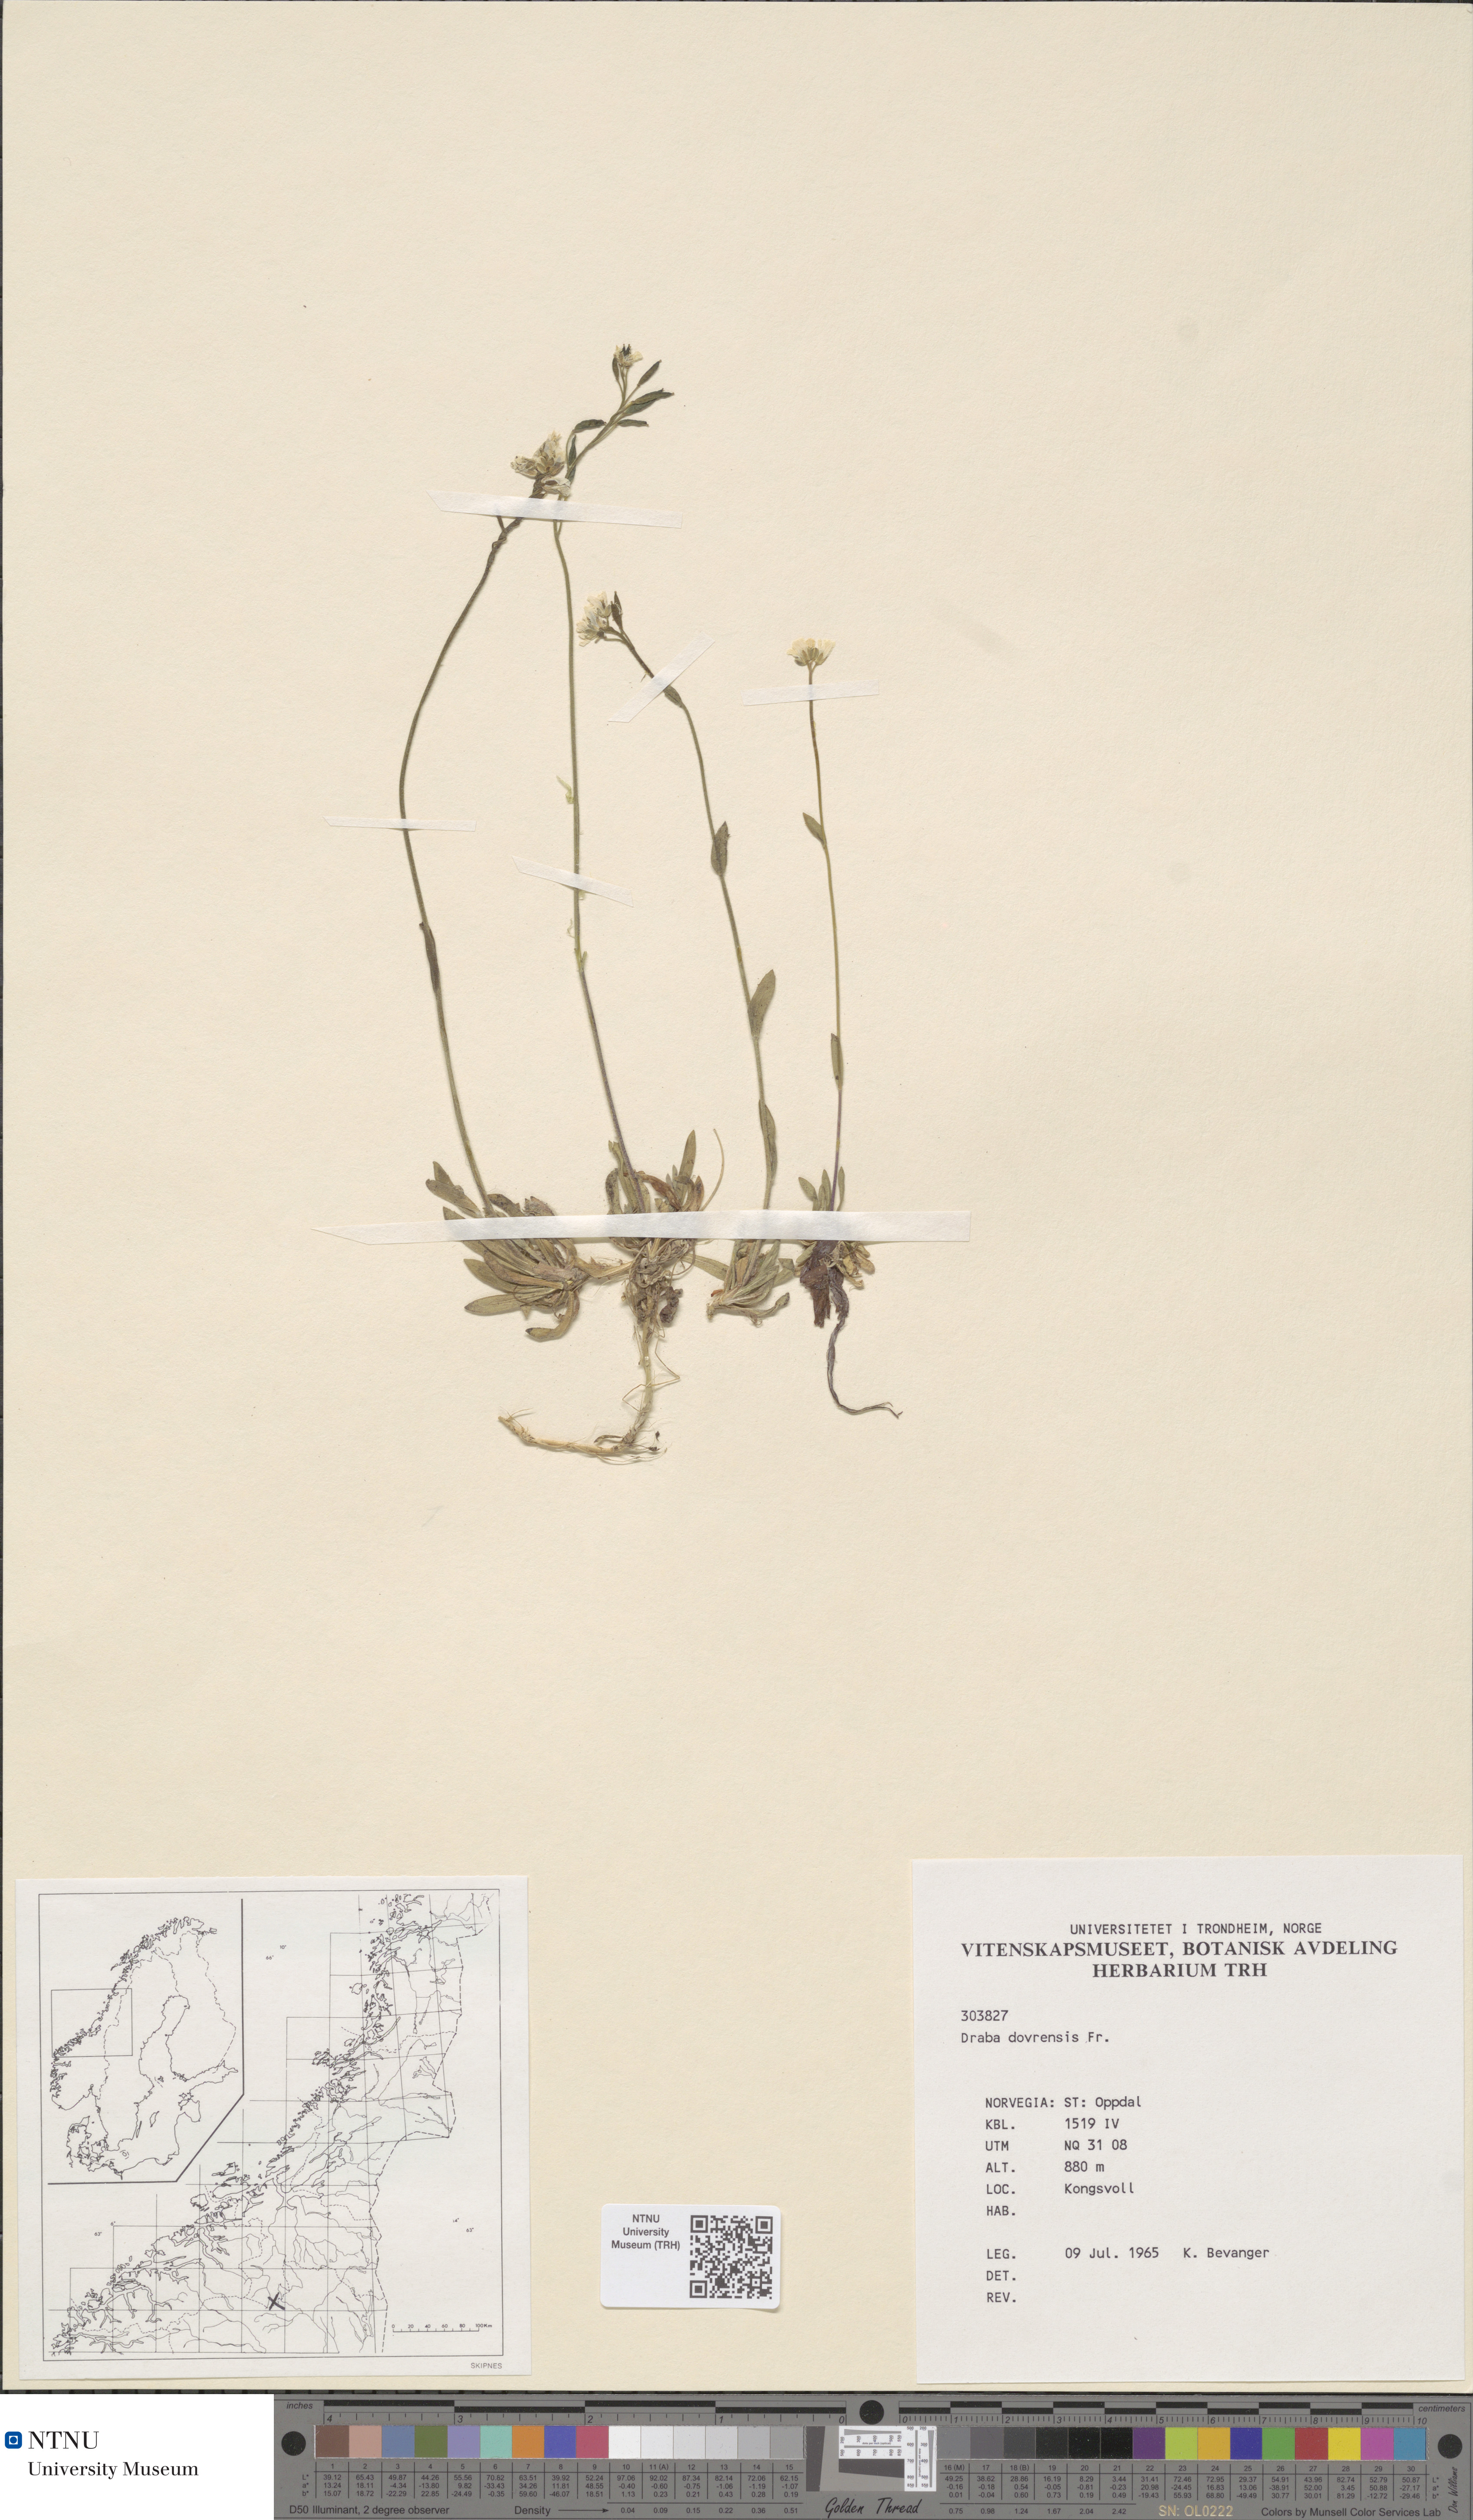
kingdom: Plantae
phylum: Tracheophyta
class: Magnoliopsida
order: Brassicales
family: Brassicaceae
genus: Draba
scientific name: Draba glabella
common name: Glaucous draba
